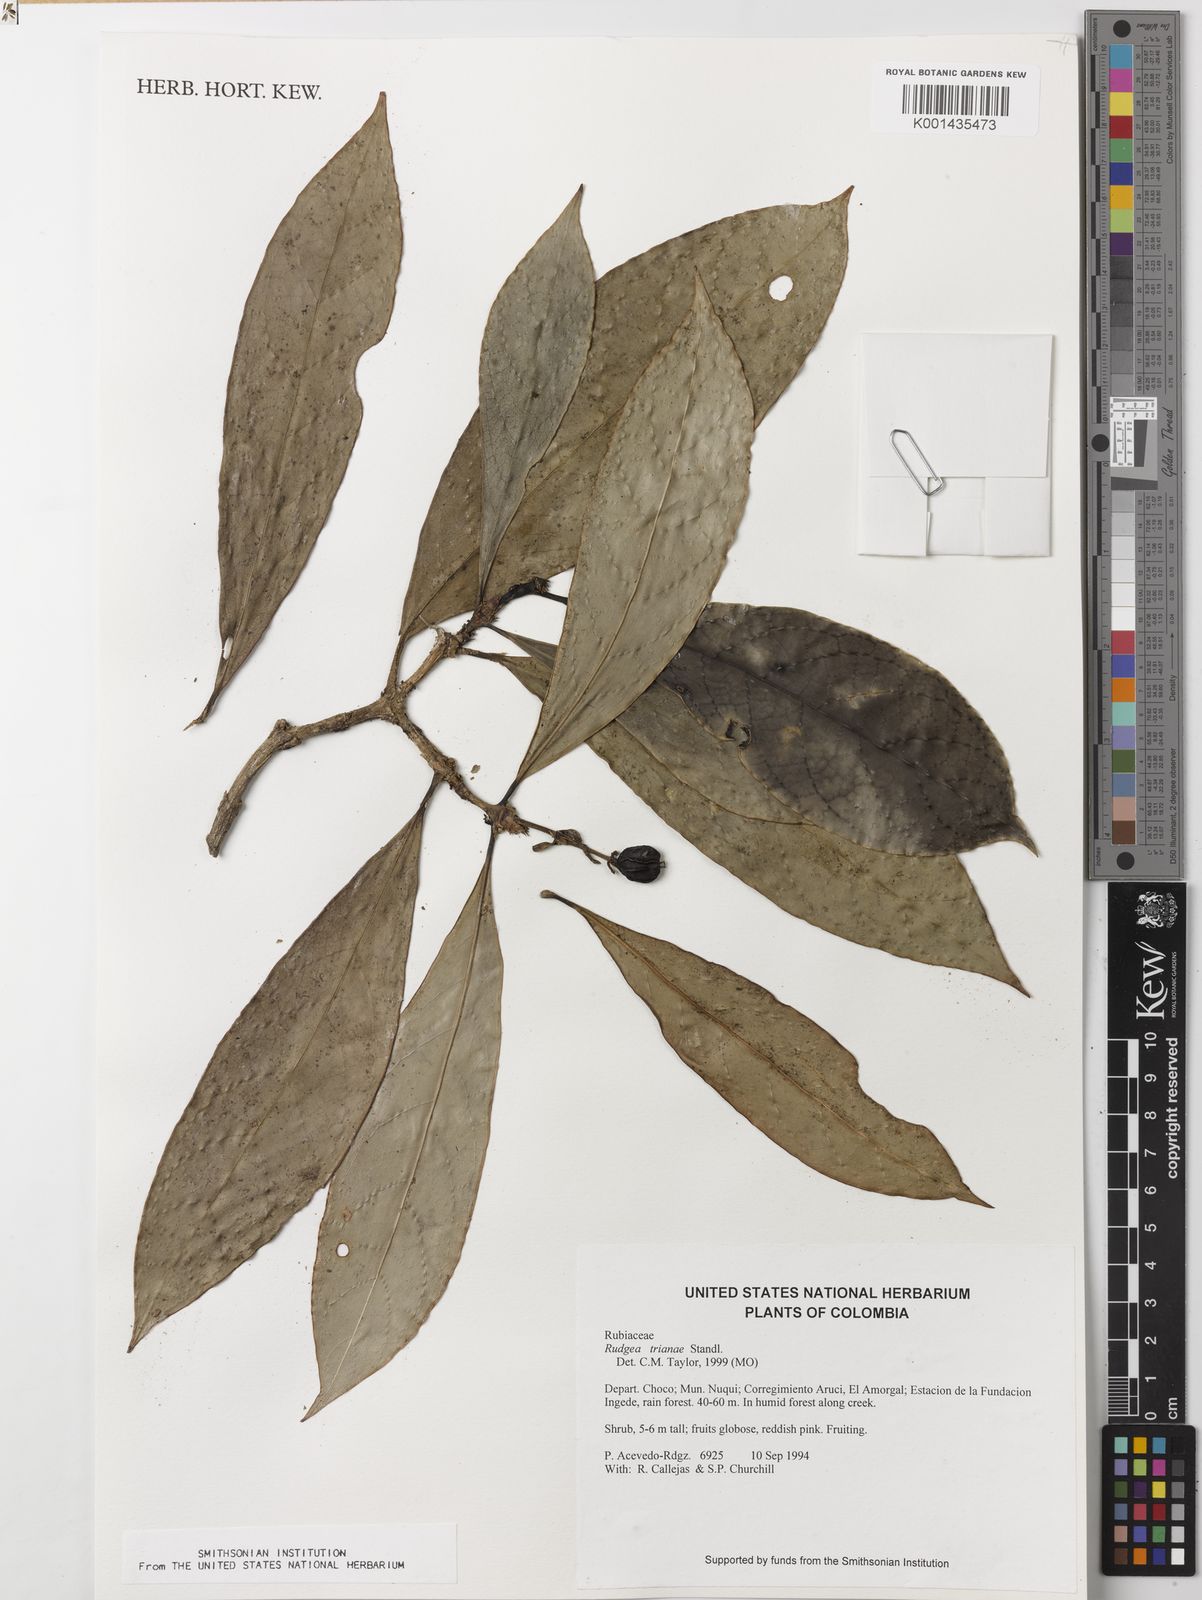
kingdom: Plantae
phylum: Tracheophyta
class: Magnoliopsida
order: Gentianales
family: Rubiaceae
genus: Rudgea
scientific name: Rudgea trianae
